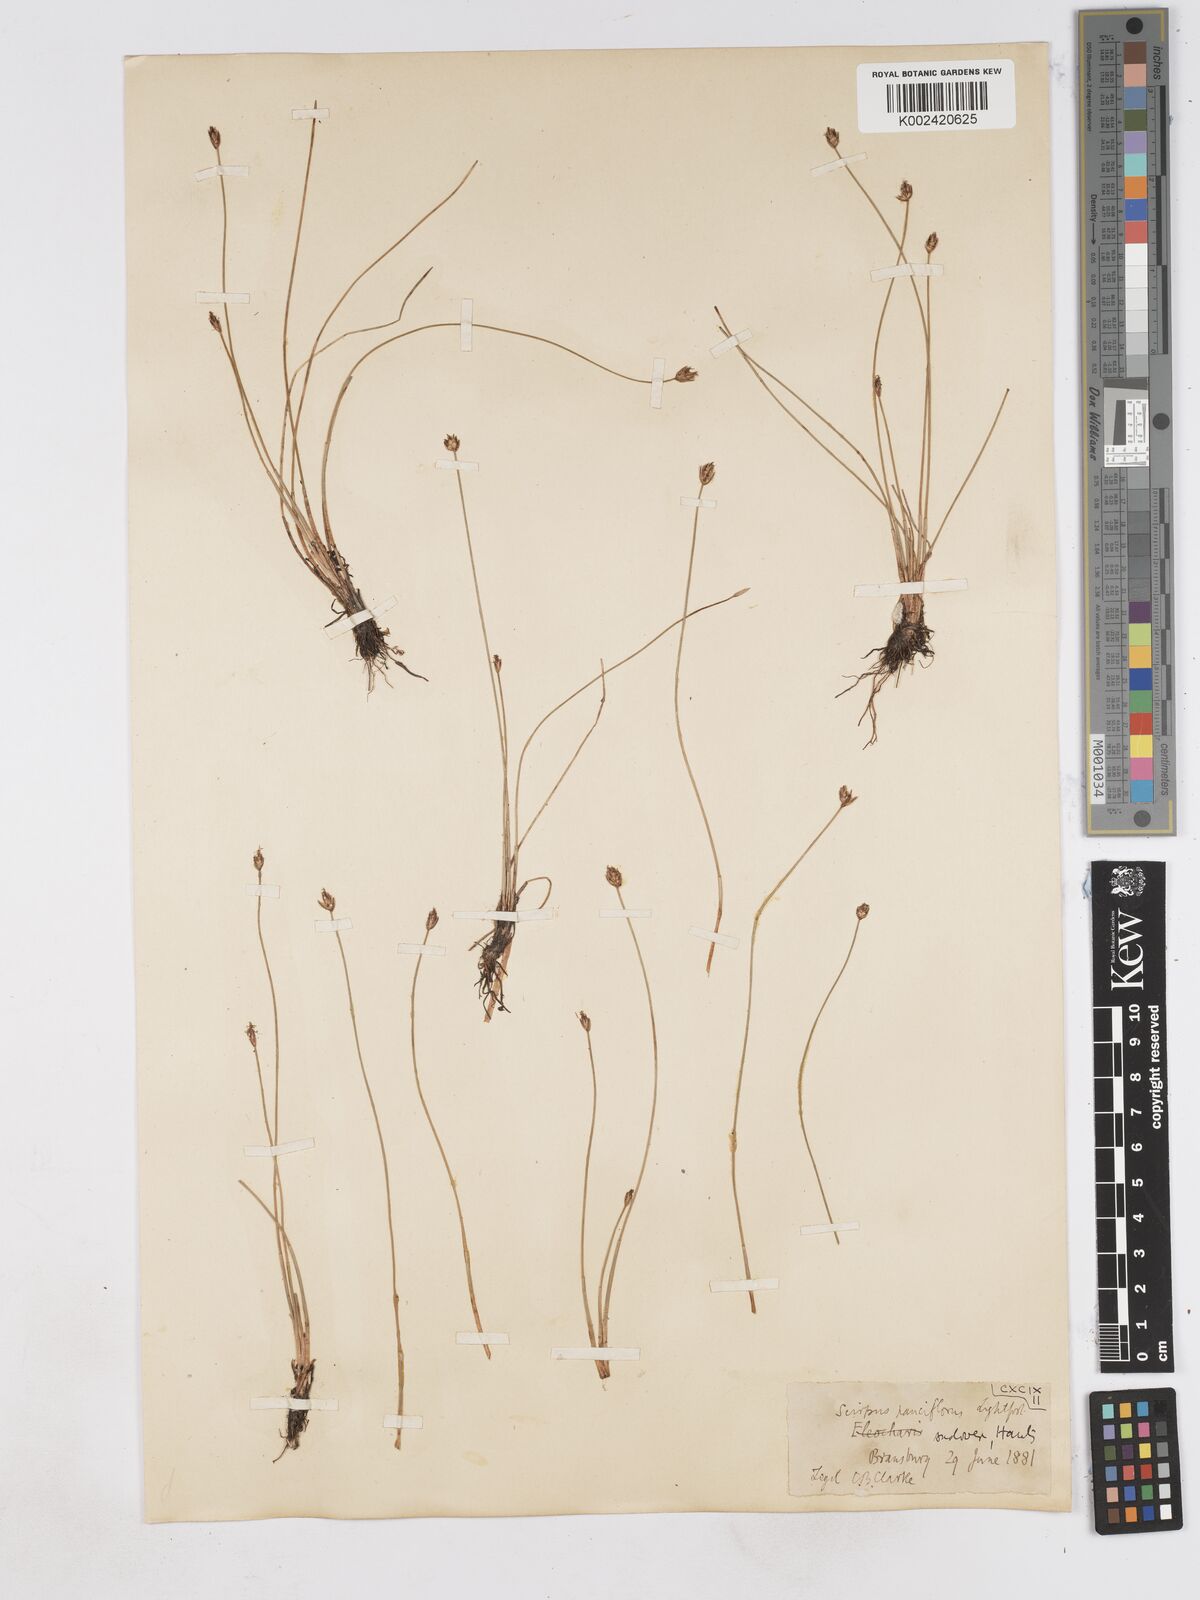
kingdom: Plantae
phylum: Tracheophyta
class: Liliopsida
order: Poales
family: Cyperaceae
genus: Eleocharis
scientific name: Eleocharis quinqueflora
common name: Few-flowered spike-rush
